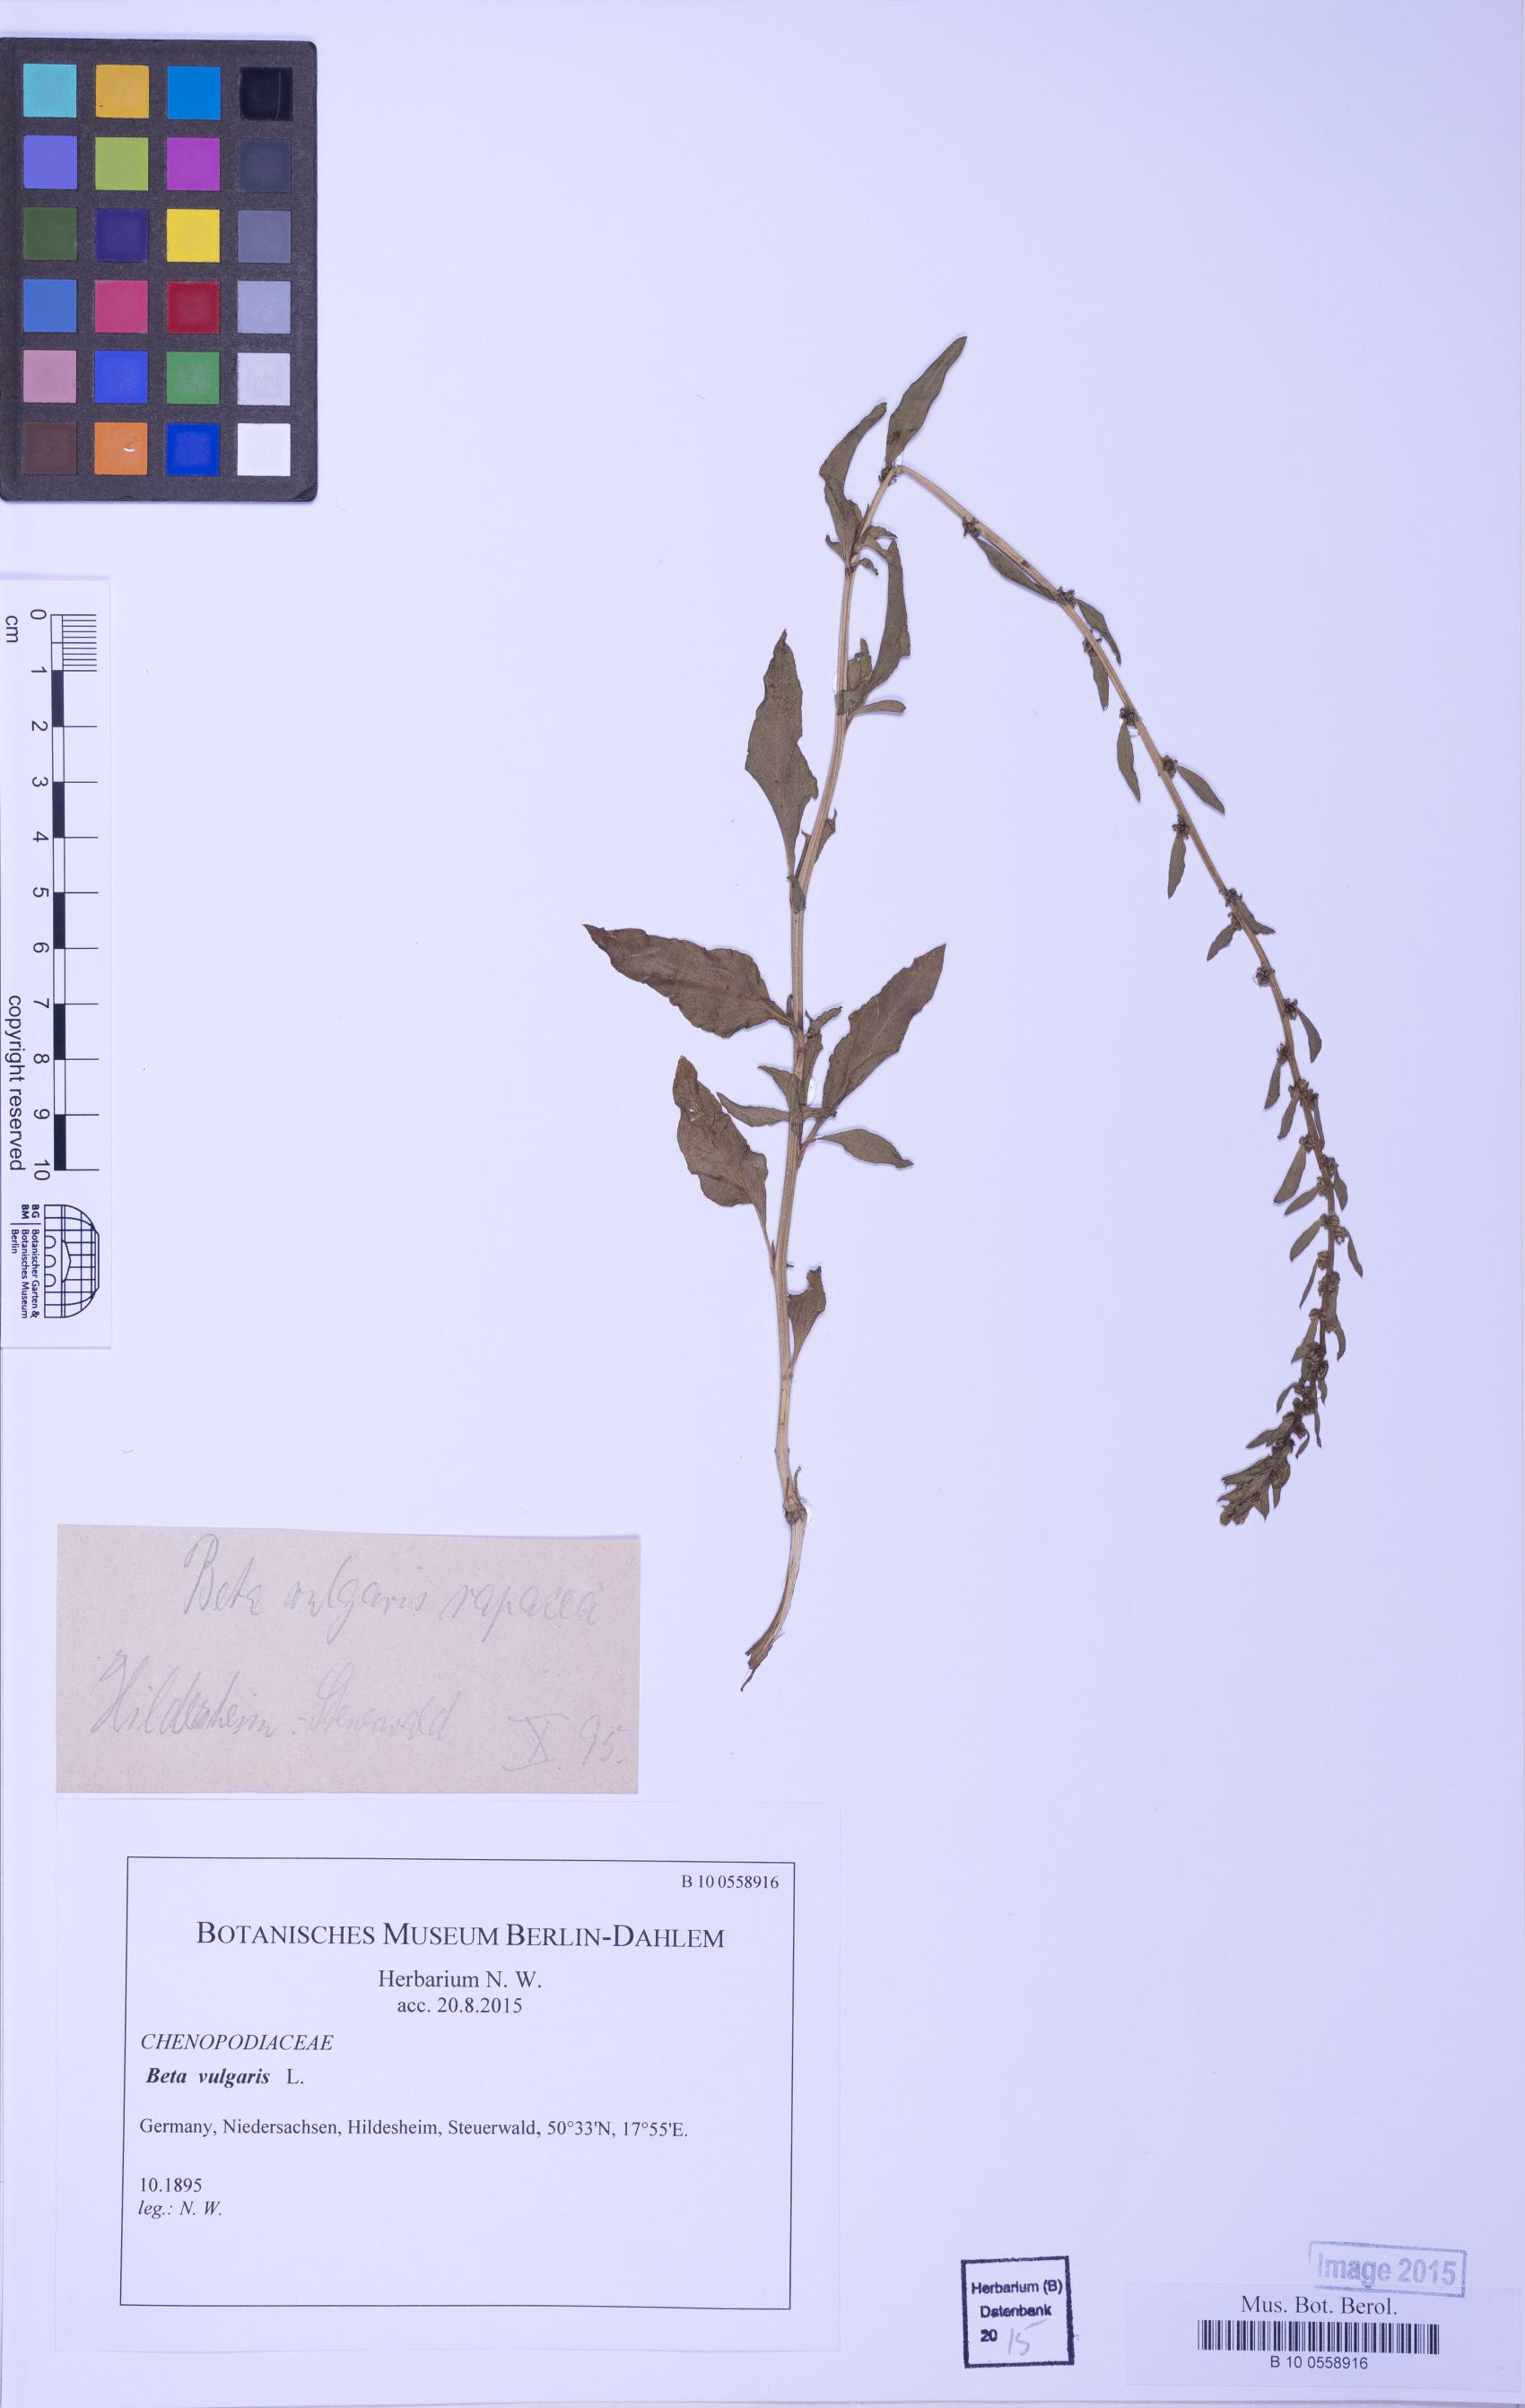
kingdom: Plantae
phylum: Tracheophyta
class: Magnoliopsida
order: Caryophyllales
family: Amaranthaceae
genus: Beta
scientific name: Beta vulgaris
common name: Beet
